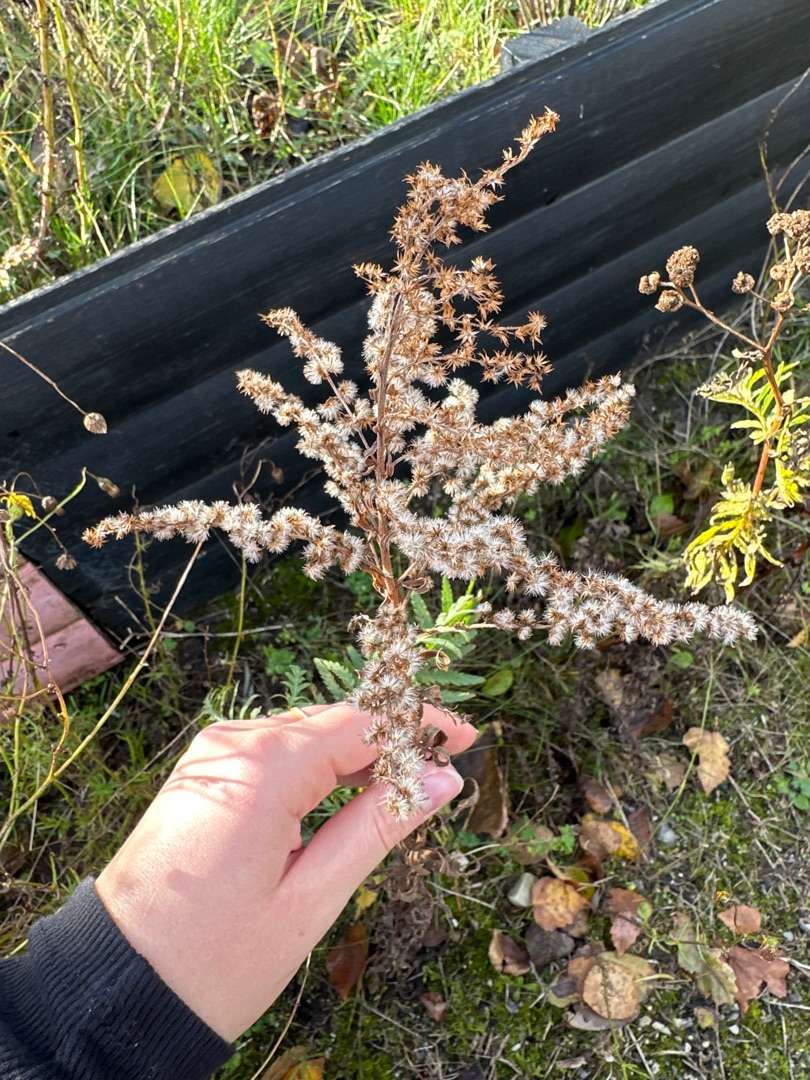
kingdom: Plantae
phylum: Tracheophyta
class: Magnoliopsida
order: Asterales
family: Asteraceae
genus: Solidago
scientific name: Solidago canadensis
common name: Kanadisk gyldenris
